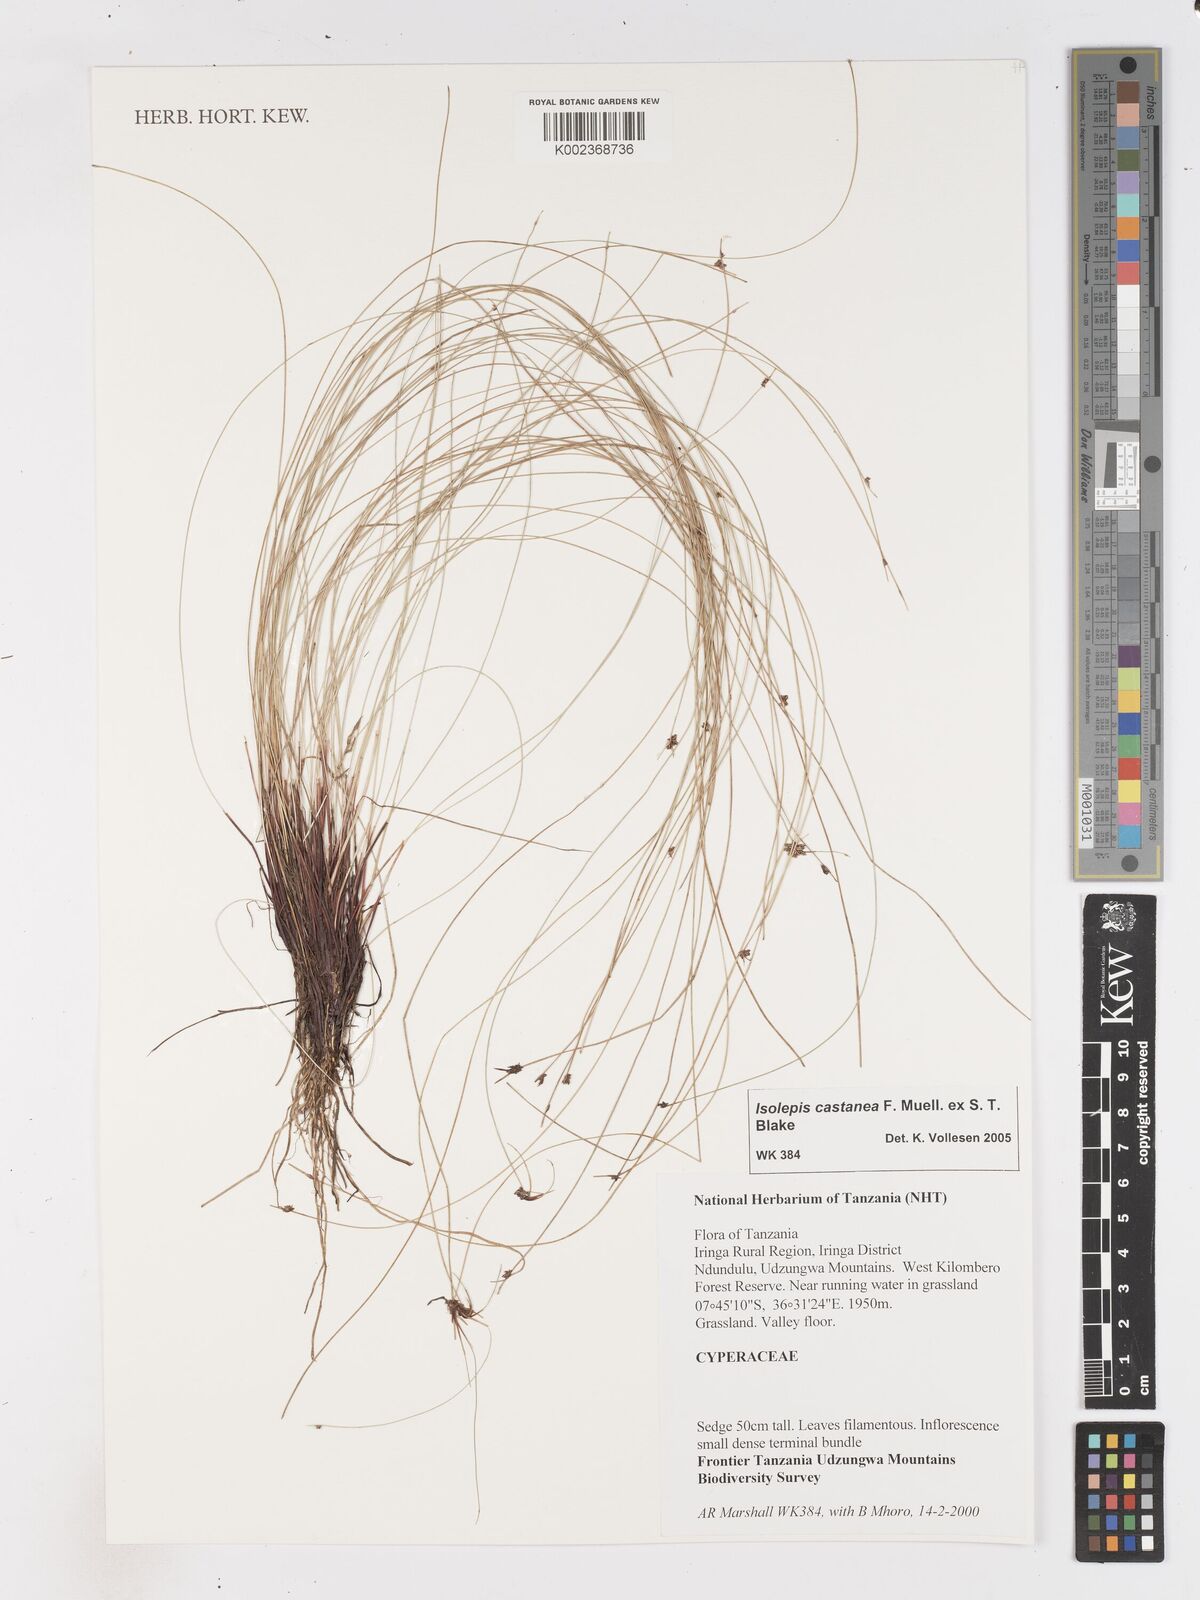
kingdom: Plantae
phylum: Tracheophyta
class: Liliopsida
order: Poales
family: Cyperaceae
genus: Isolepis
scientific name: Isolepis
